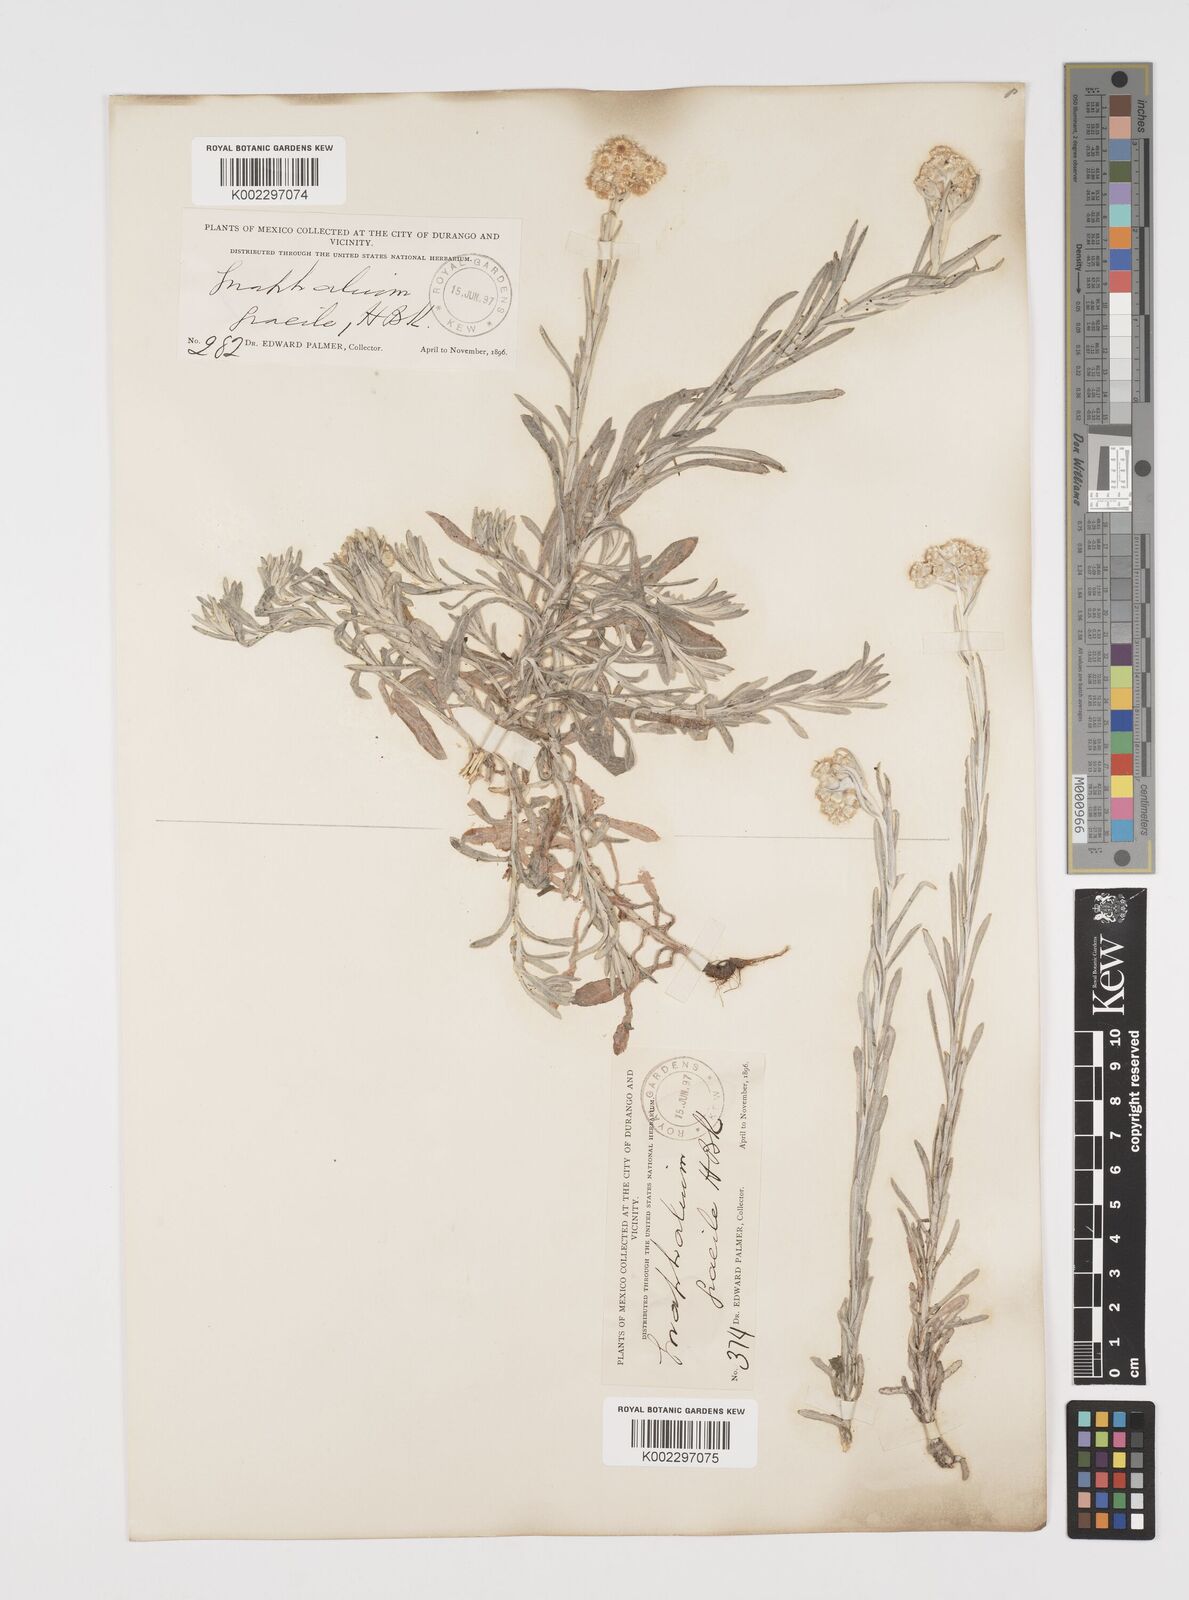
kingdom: Plantae
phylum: Tracheophyta
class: Magnoliopsida
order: Asterales
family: Asteraceae
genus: Pseudognaphalium
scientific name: Pseudognaphalium
